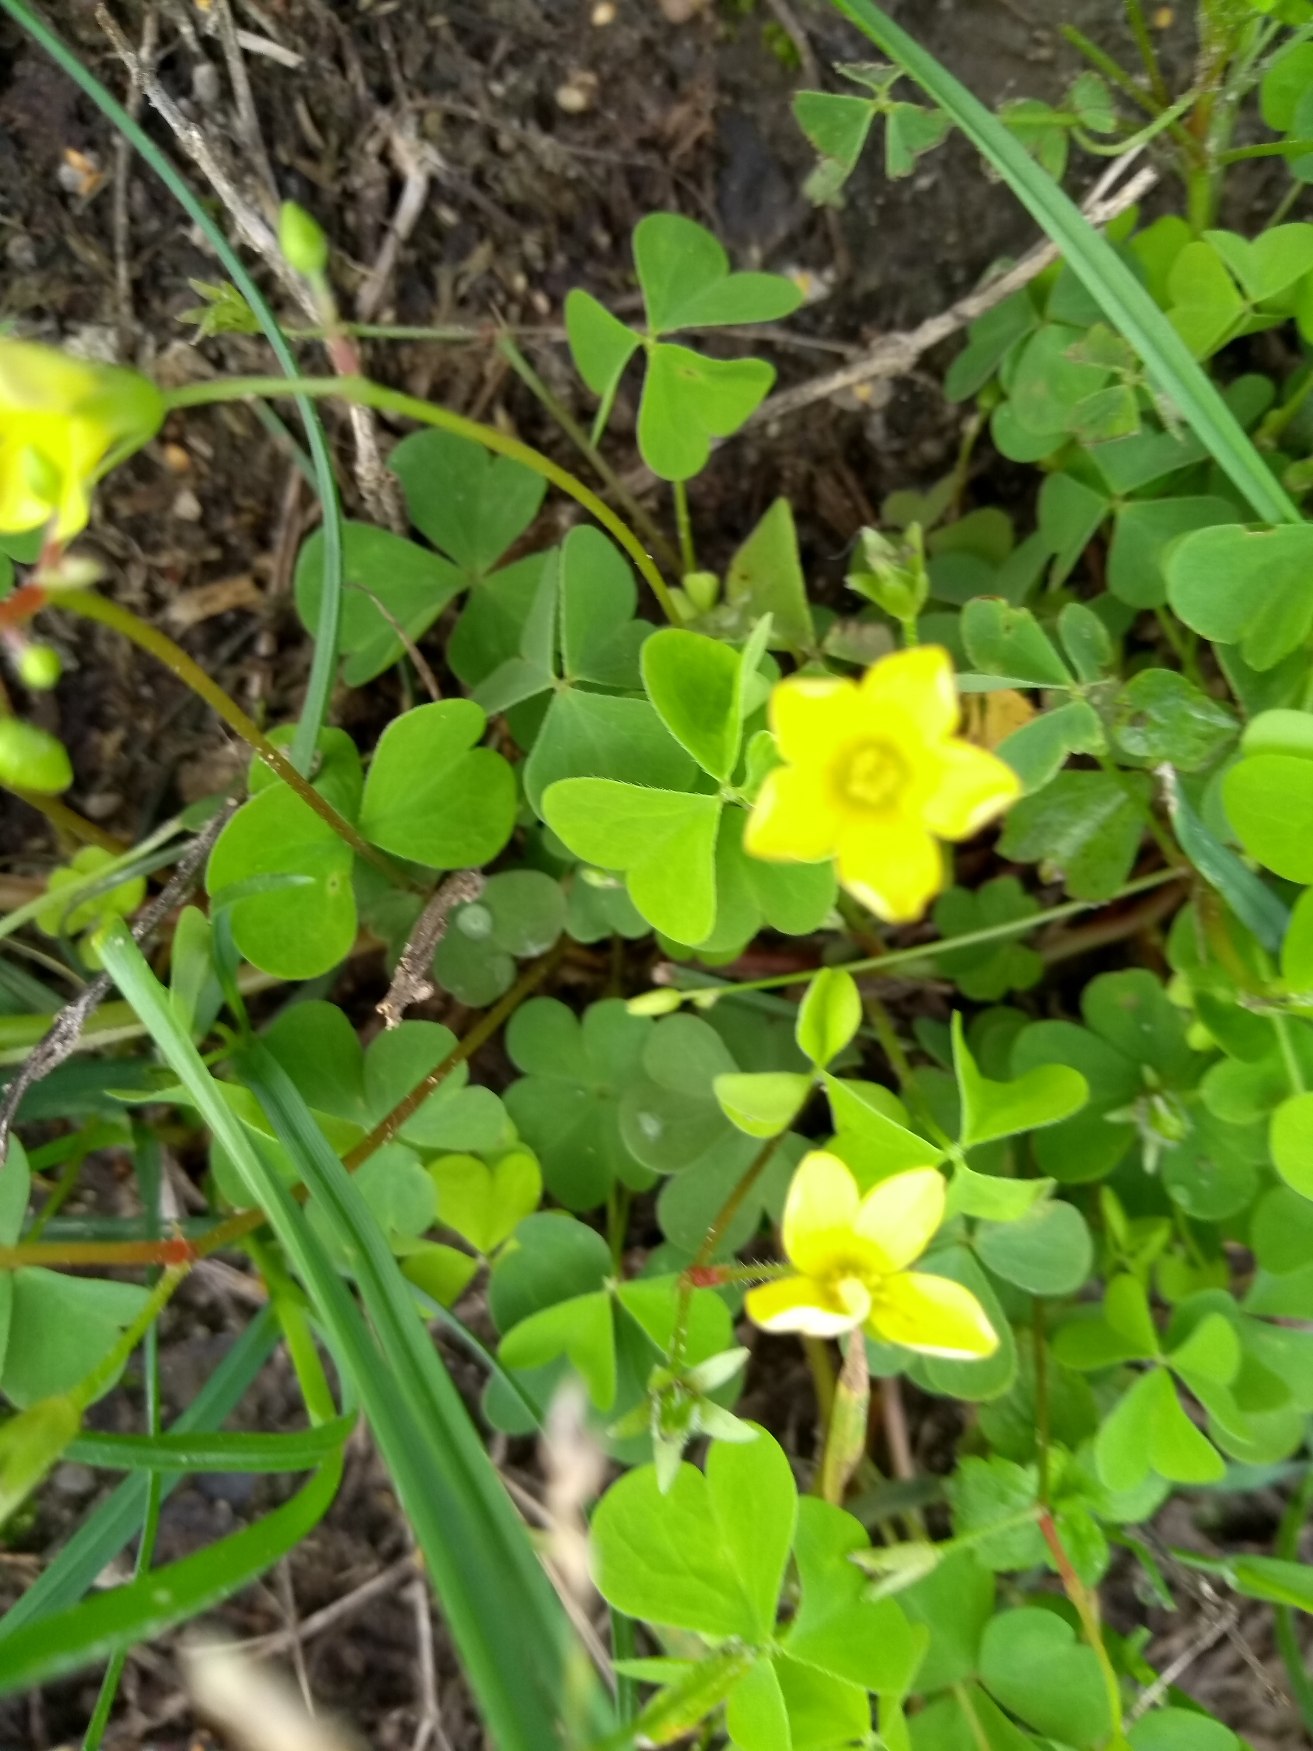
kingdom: Plantae
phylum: Tracheophyta
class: Magnoliopsida
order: Oxalidales
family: Oxalidaceae
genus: Oxalis
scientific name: Oxalis stricta
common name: Rank surkløver
